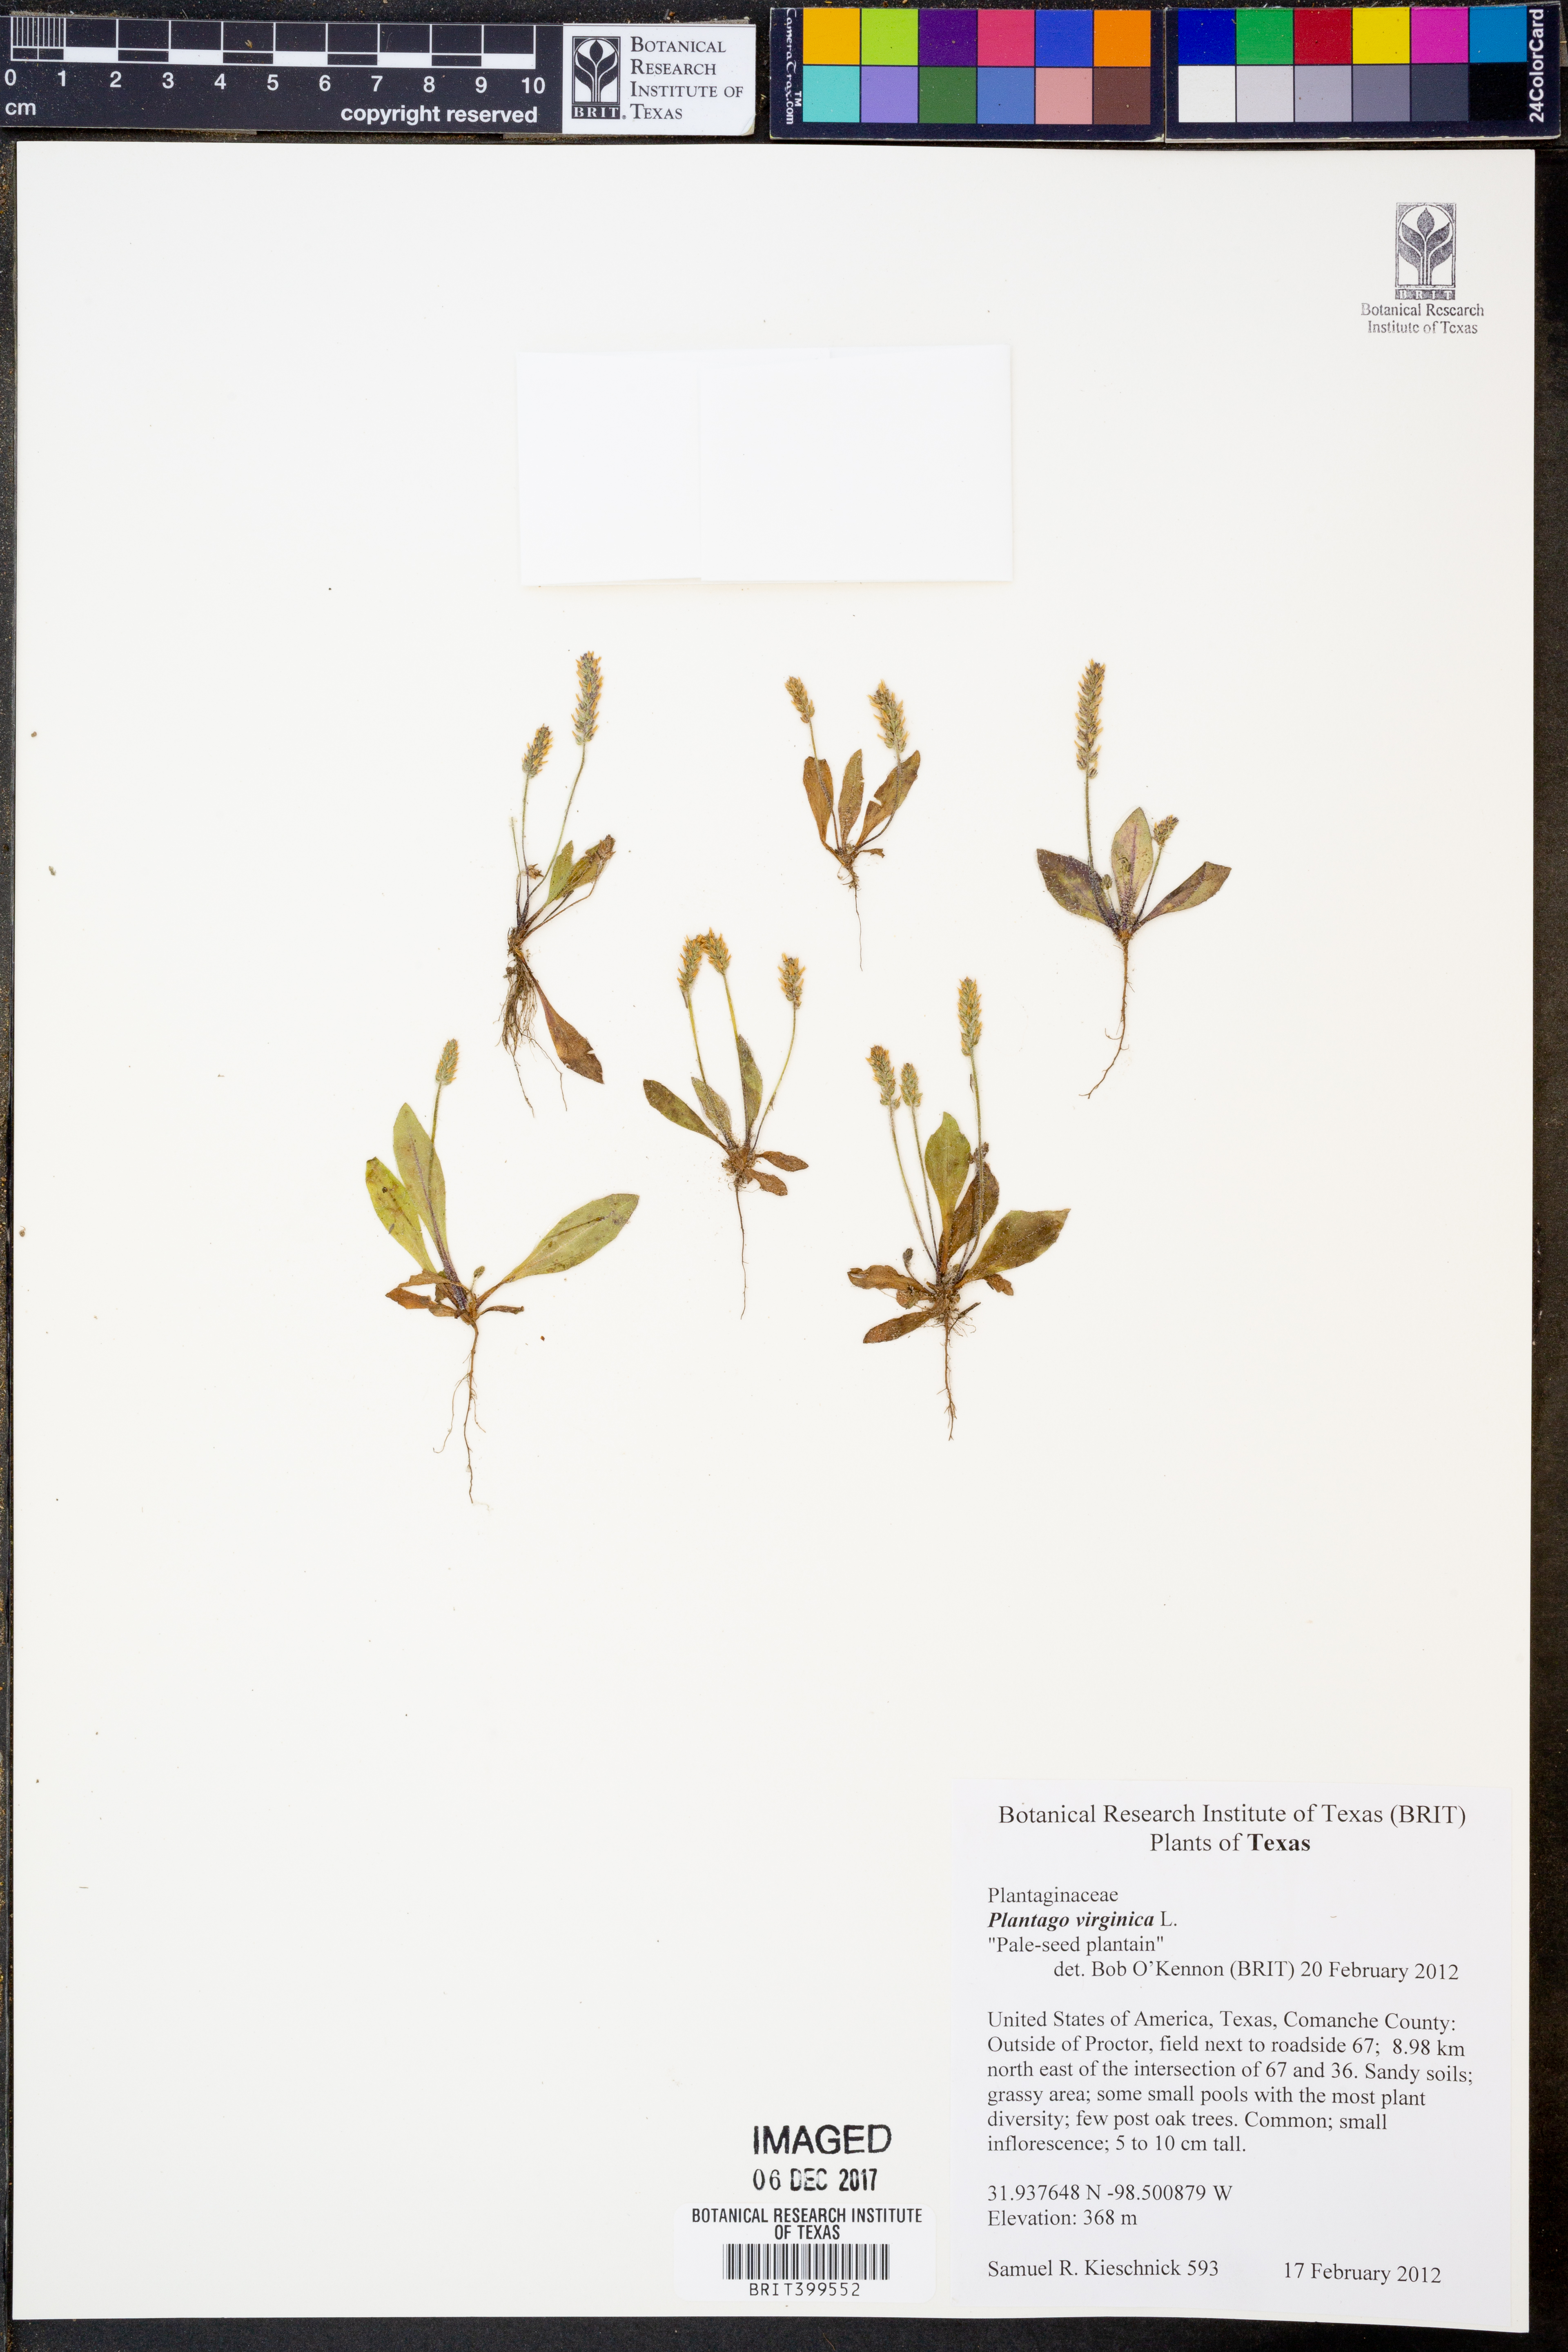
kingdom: Plantae
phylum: Tracheophyta
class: Magnoliopsida
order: Lamiales
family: Plantaginaceae
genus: Plantago
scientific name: Plantago virginica
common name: Hoary plantain
